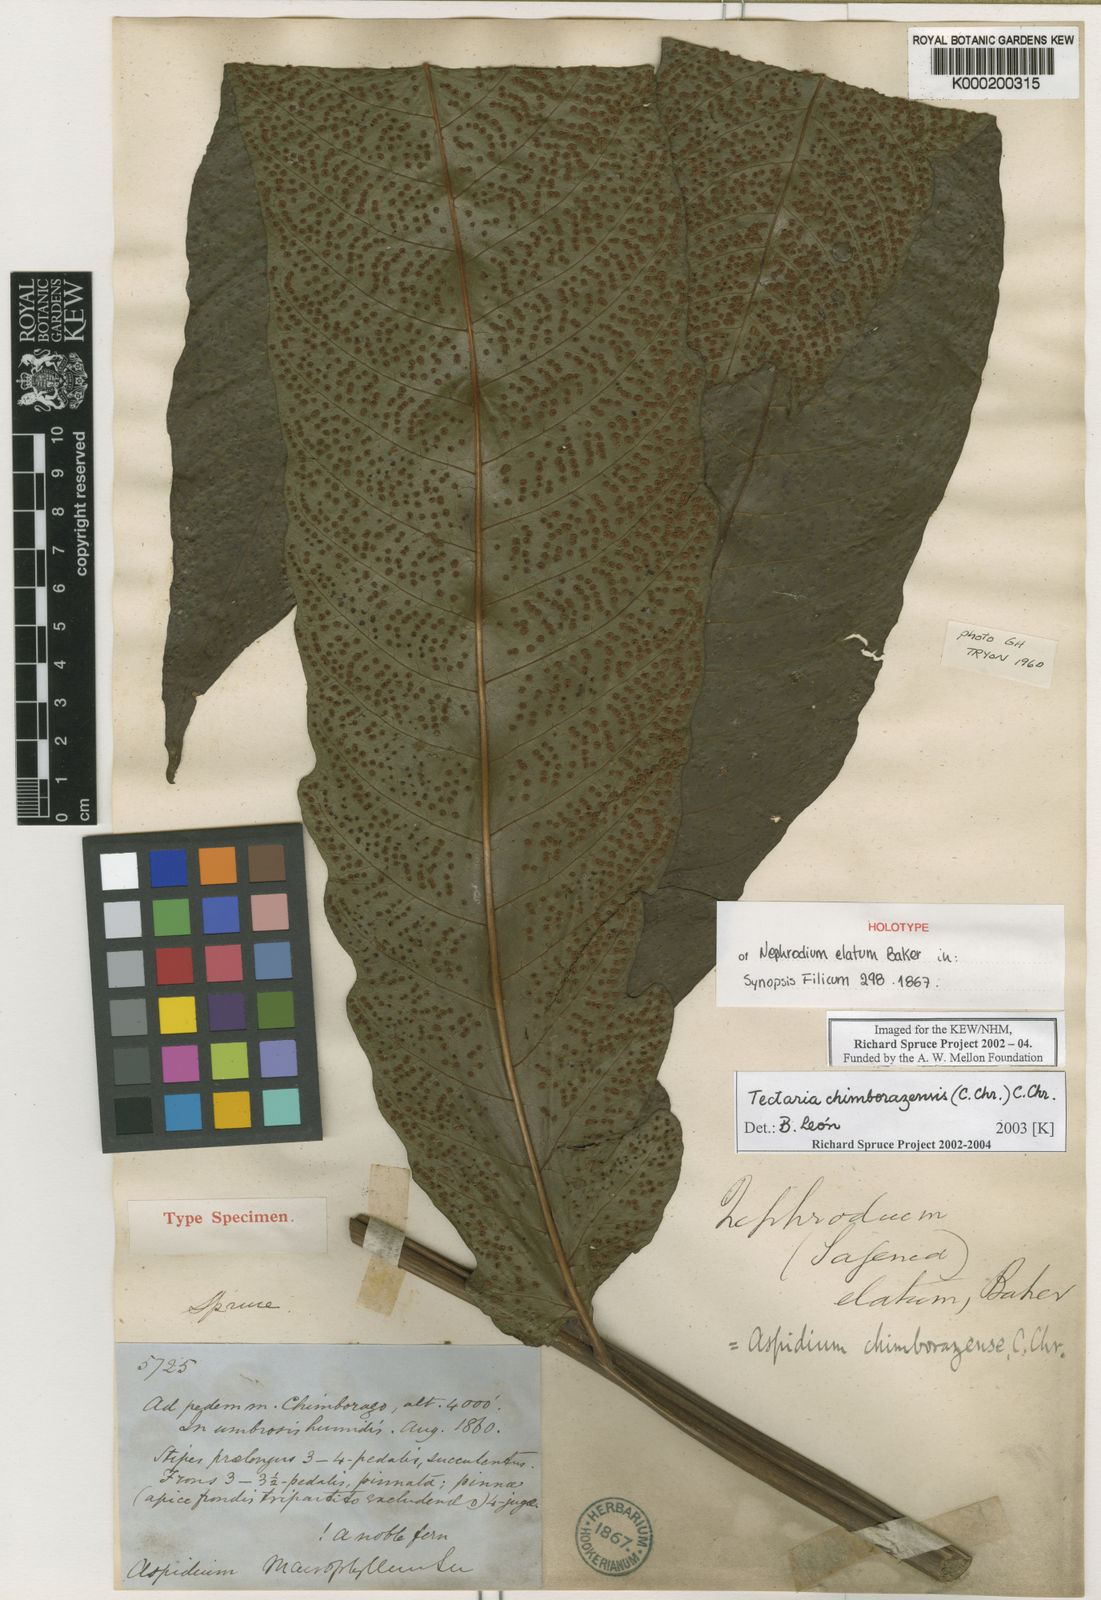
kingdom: Plantae
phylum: Tracheophyta
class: Polypodiopsida
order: Polypodiales
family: Tectariaceae
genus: Tectaria
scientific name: Tectaria chimborazensis
